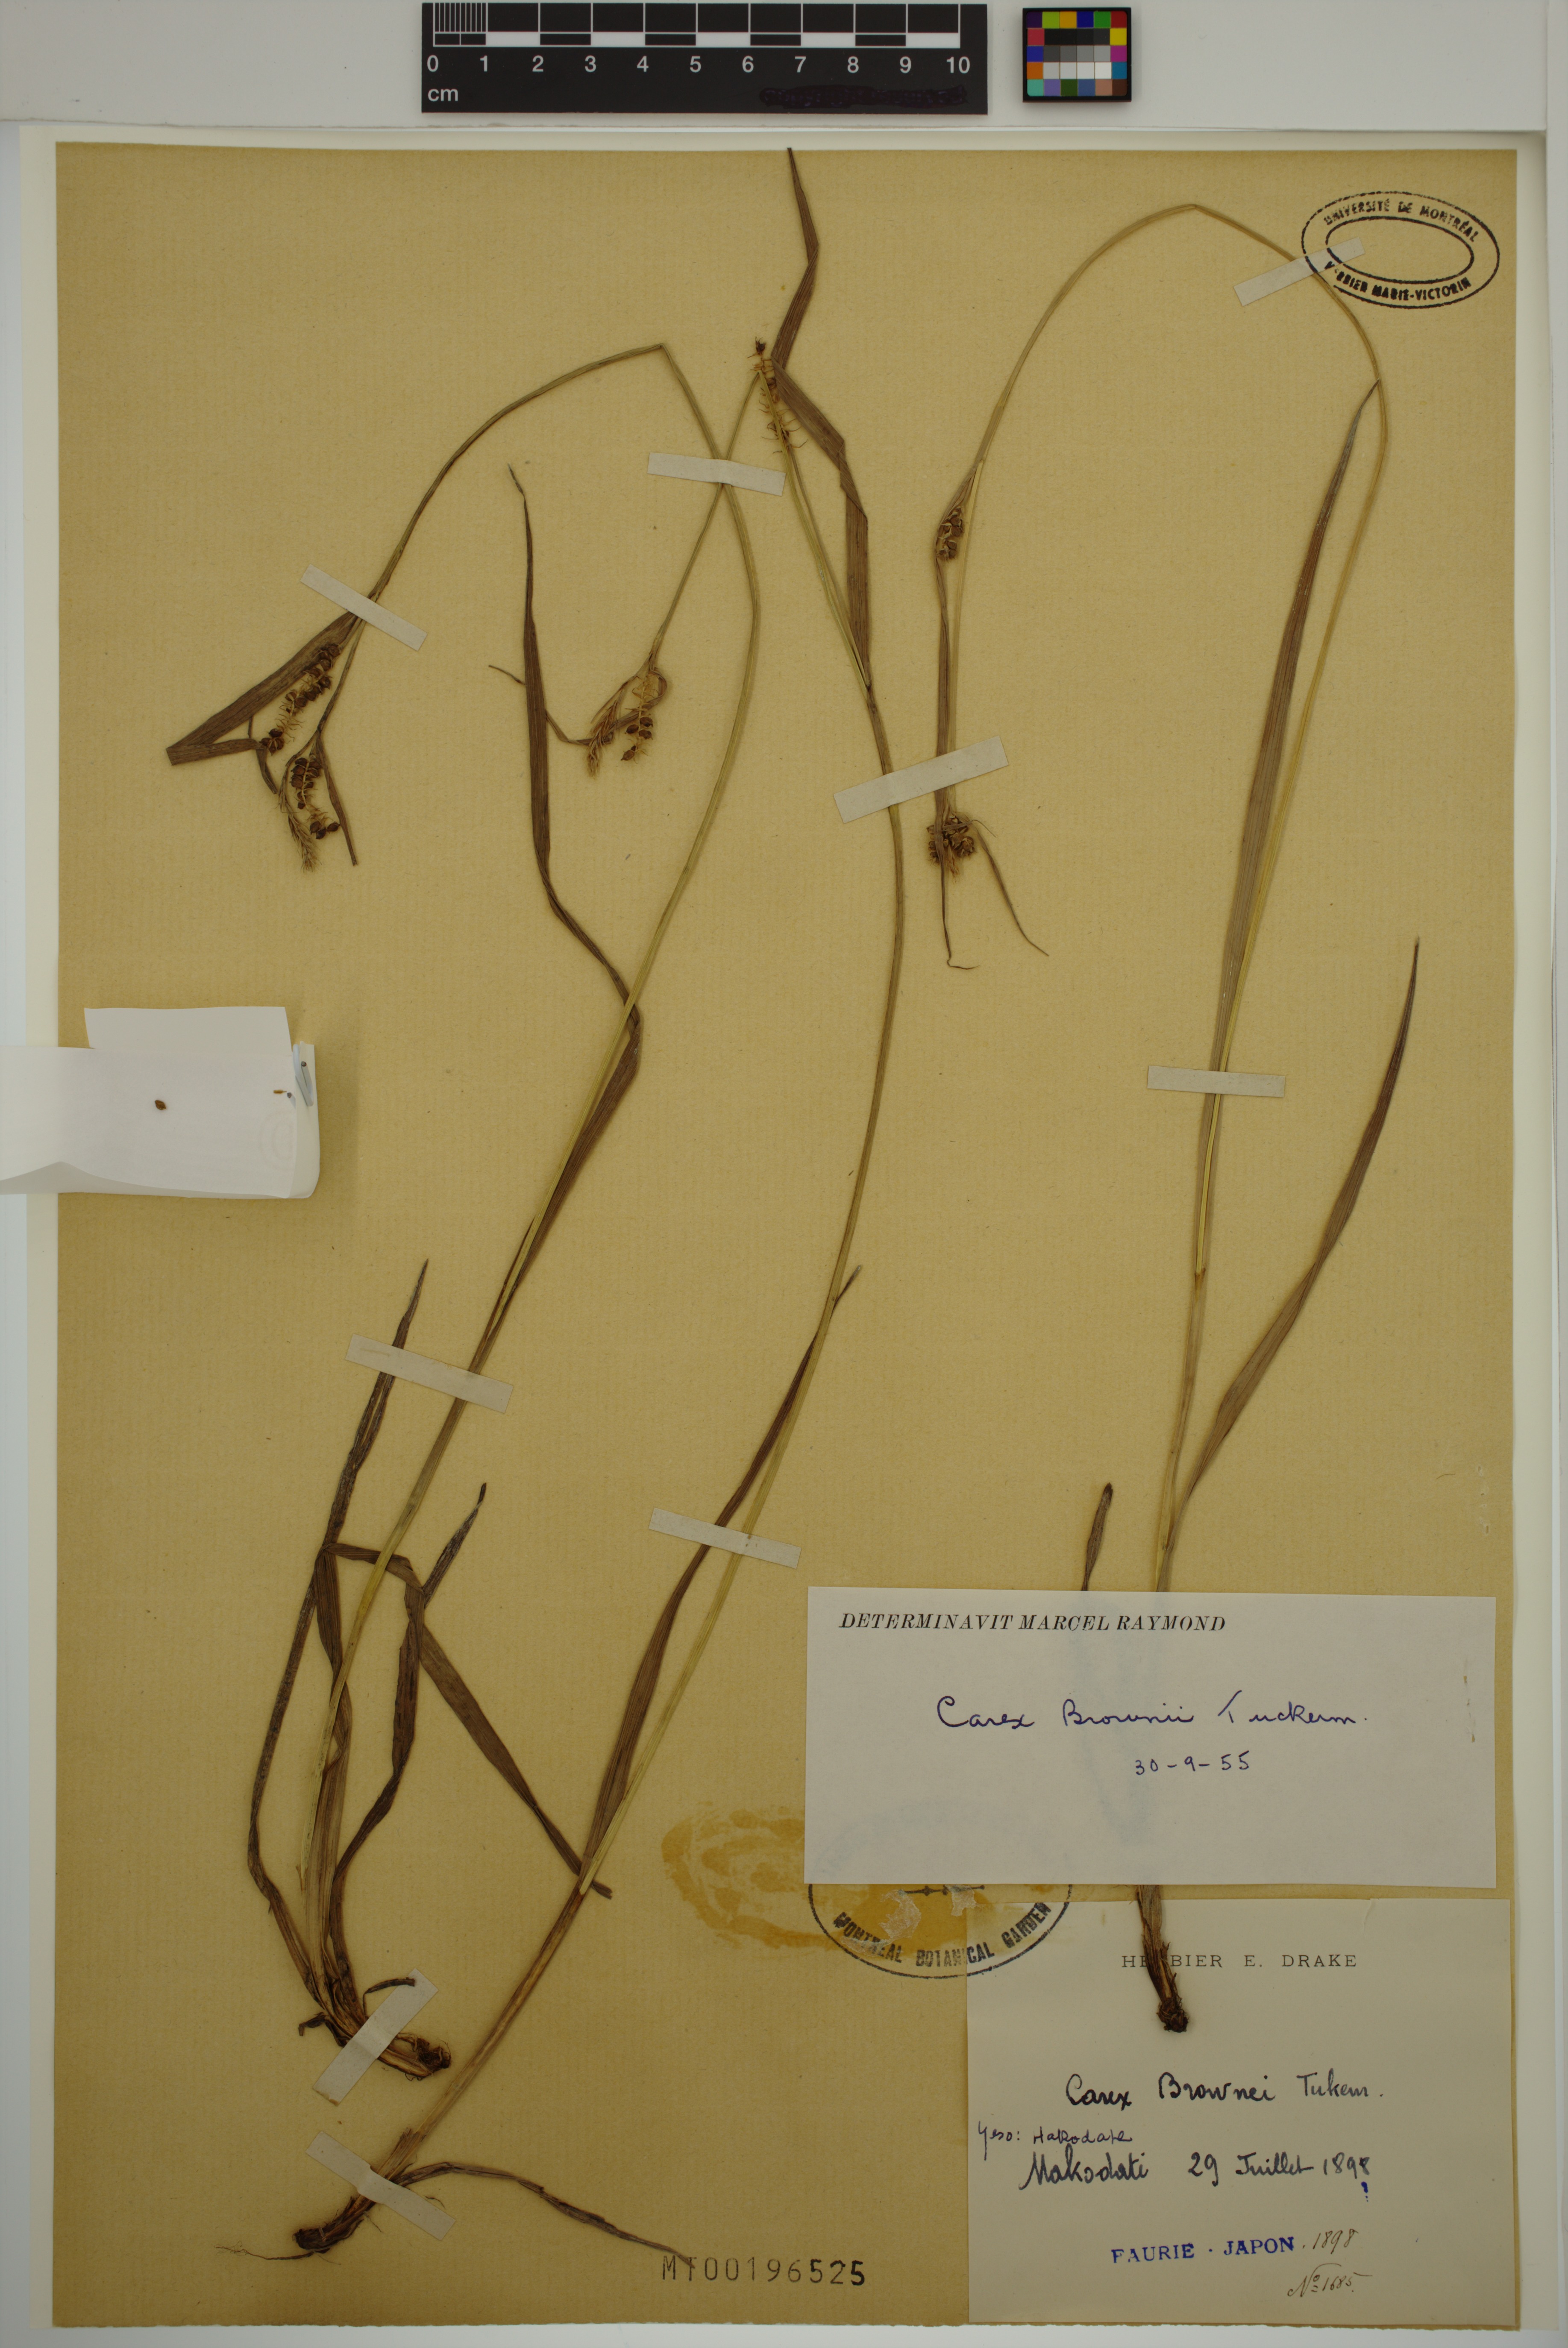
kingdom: Plantae
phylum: Tracheophyta
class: Liliopsida
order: Poales
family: Cyperaceae
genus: Carex
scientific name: Carex brownii
